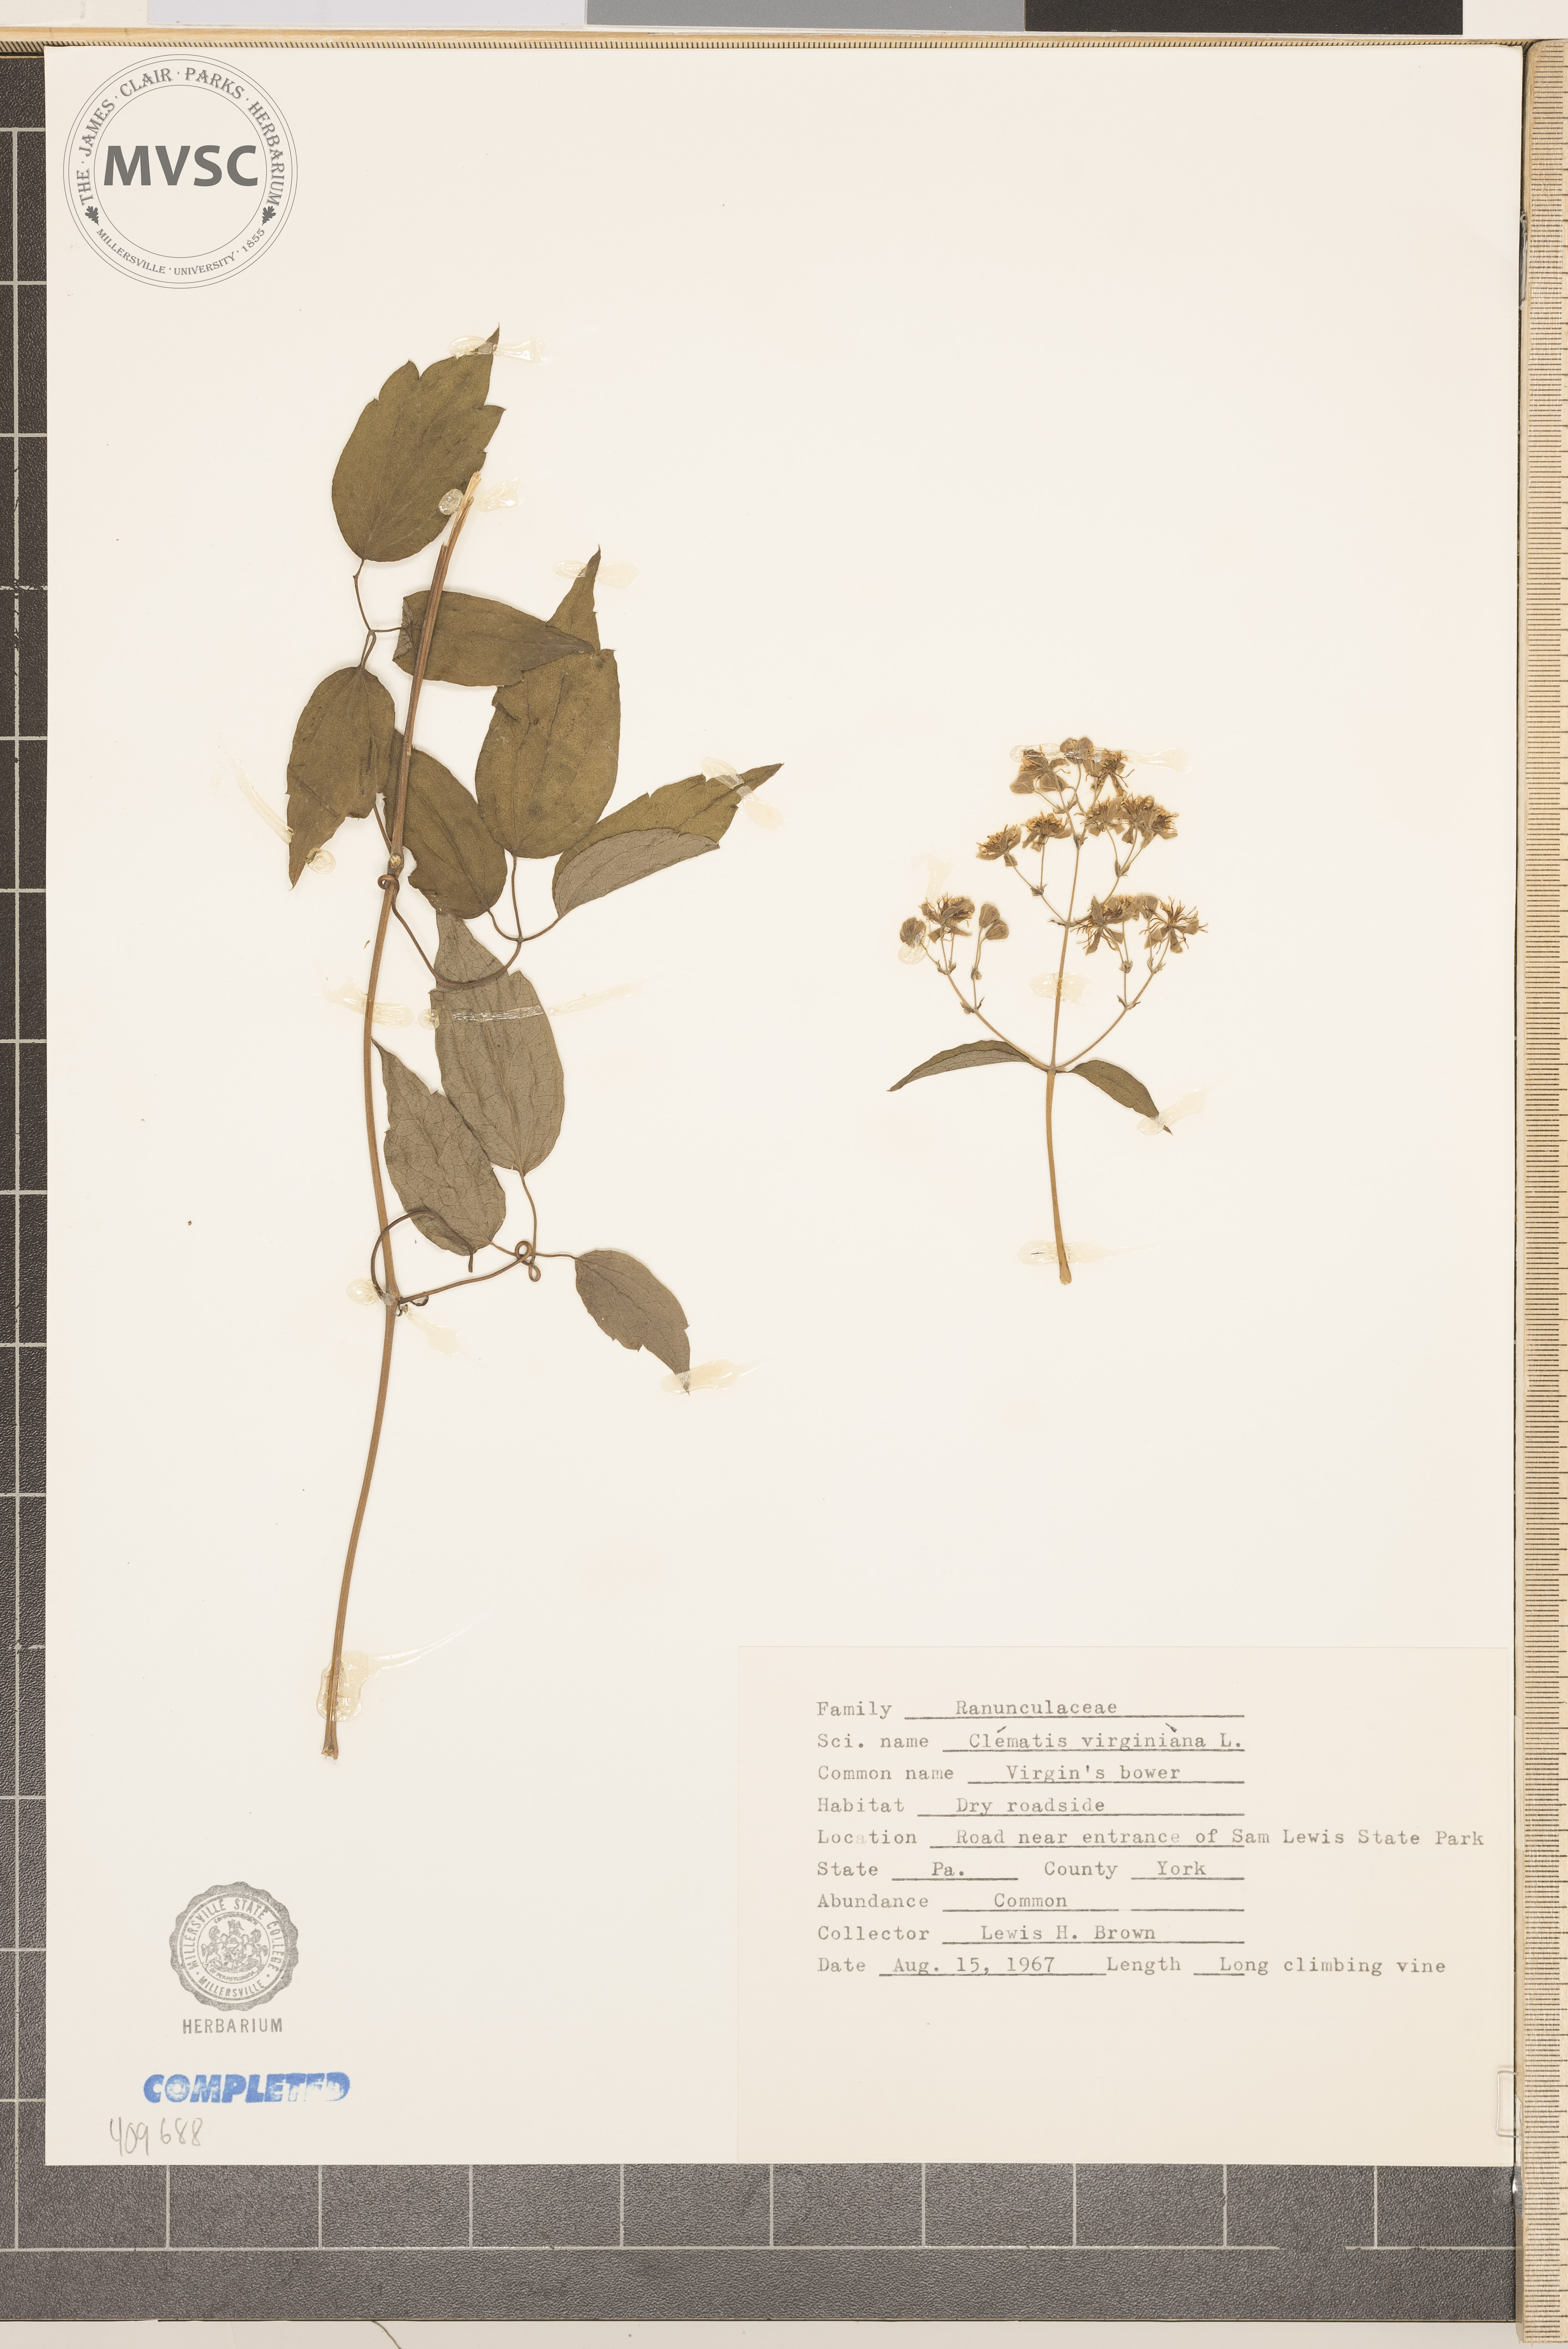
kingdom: Plantae
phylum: Tracheophyta
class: Magnoliopsida
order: Ranunculales
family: Ranunculaceae
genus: Clematis
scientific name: Clematis virginiana
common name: Virgin's-bower
